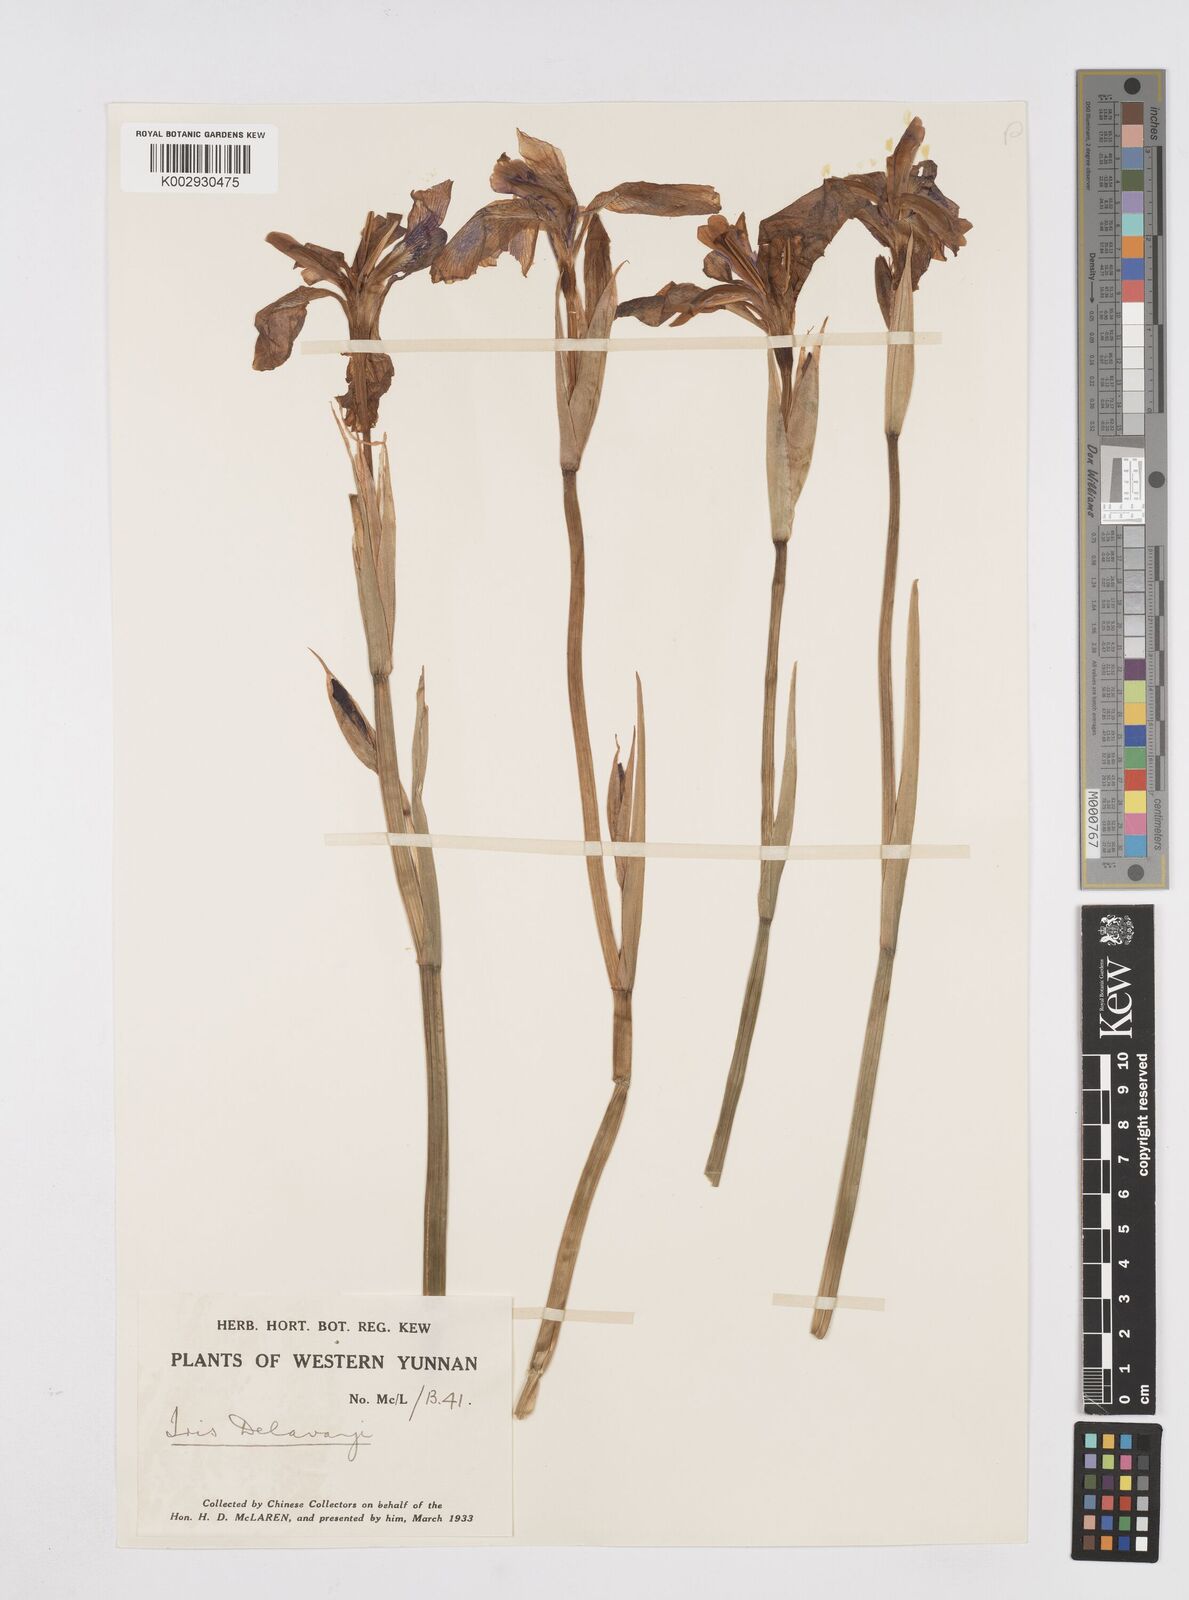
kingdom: Plantae
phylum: Tracheophyta
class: Liliopsida
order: Asparagales
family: Iridaceae
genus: Iris
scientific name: Iris delavayi
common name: Long-scape iris
